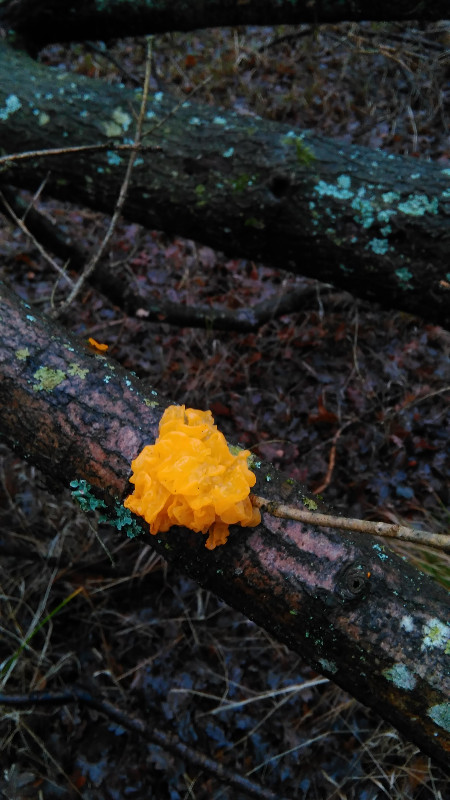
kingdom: Fungi
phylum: Basidiomycota
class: Tremellomycetes
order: Tremellales
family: Tremellaceae
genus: Tremella
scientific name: Tremella mesenterica
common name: gul bævresvamp
